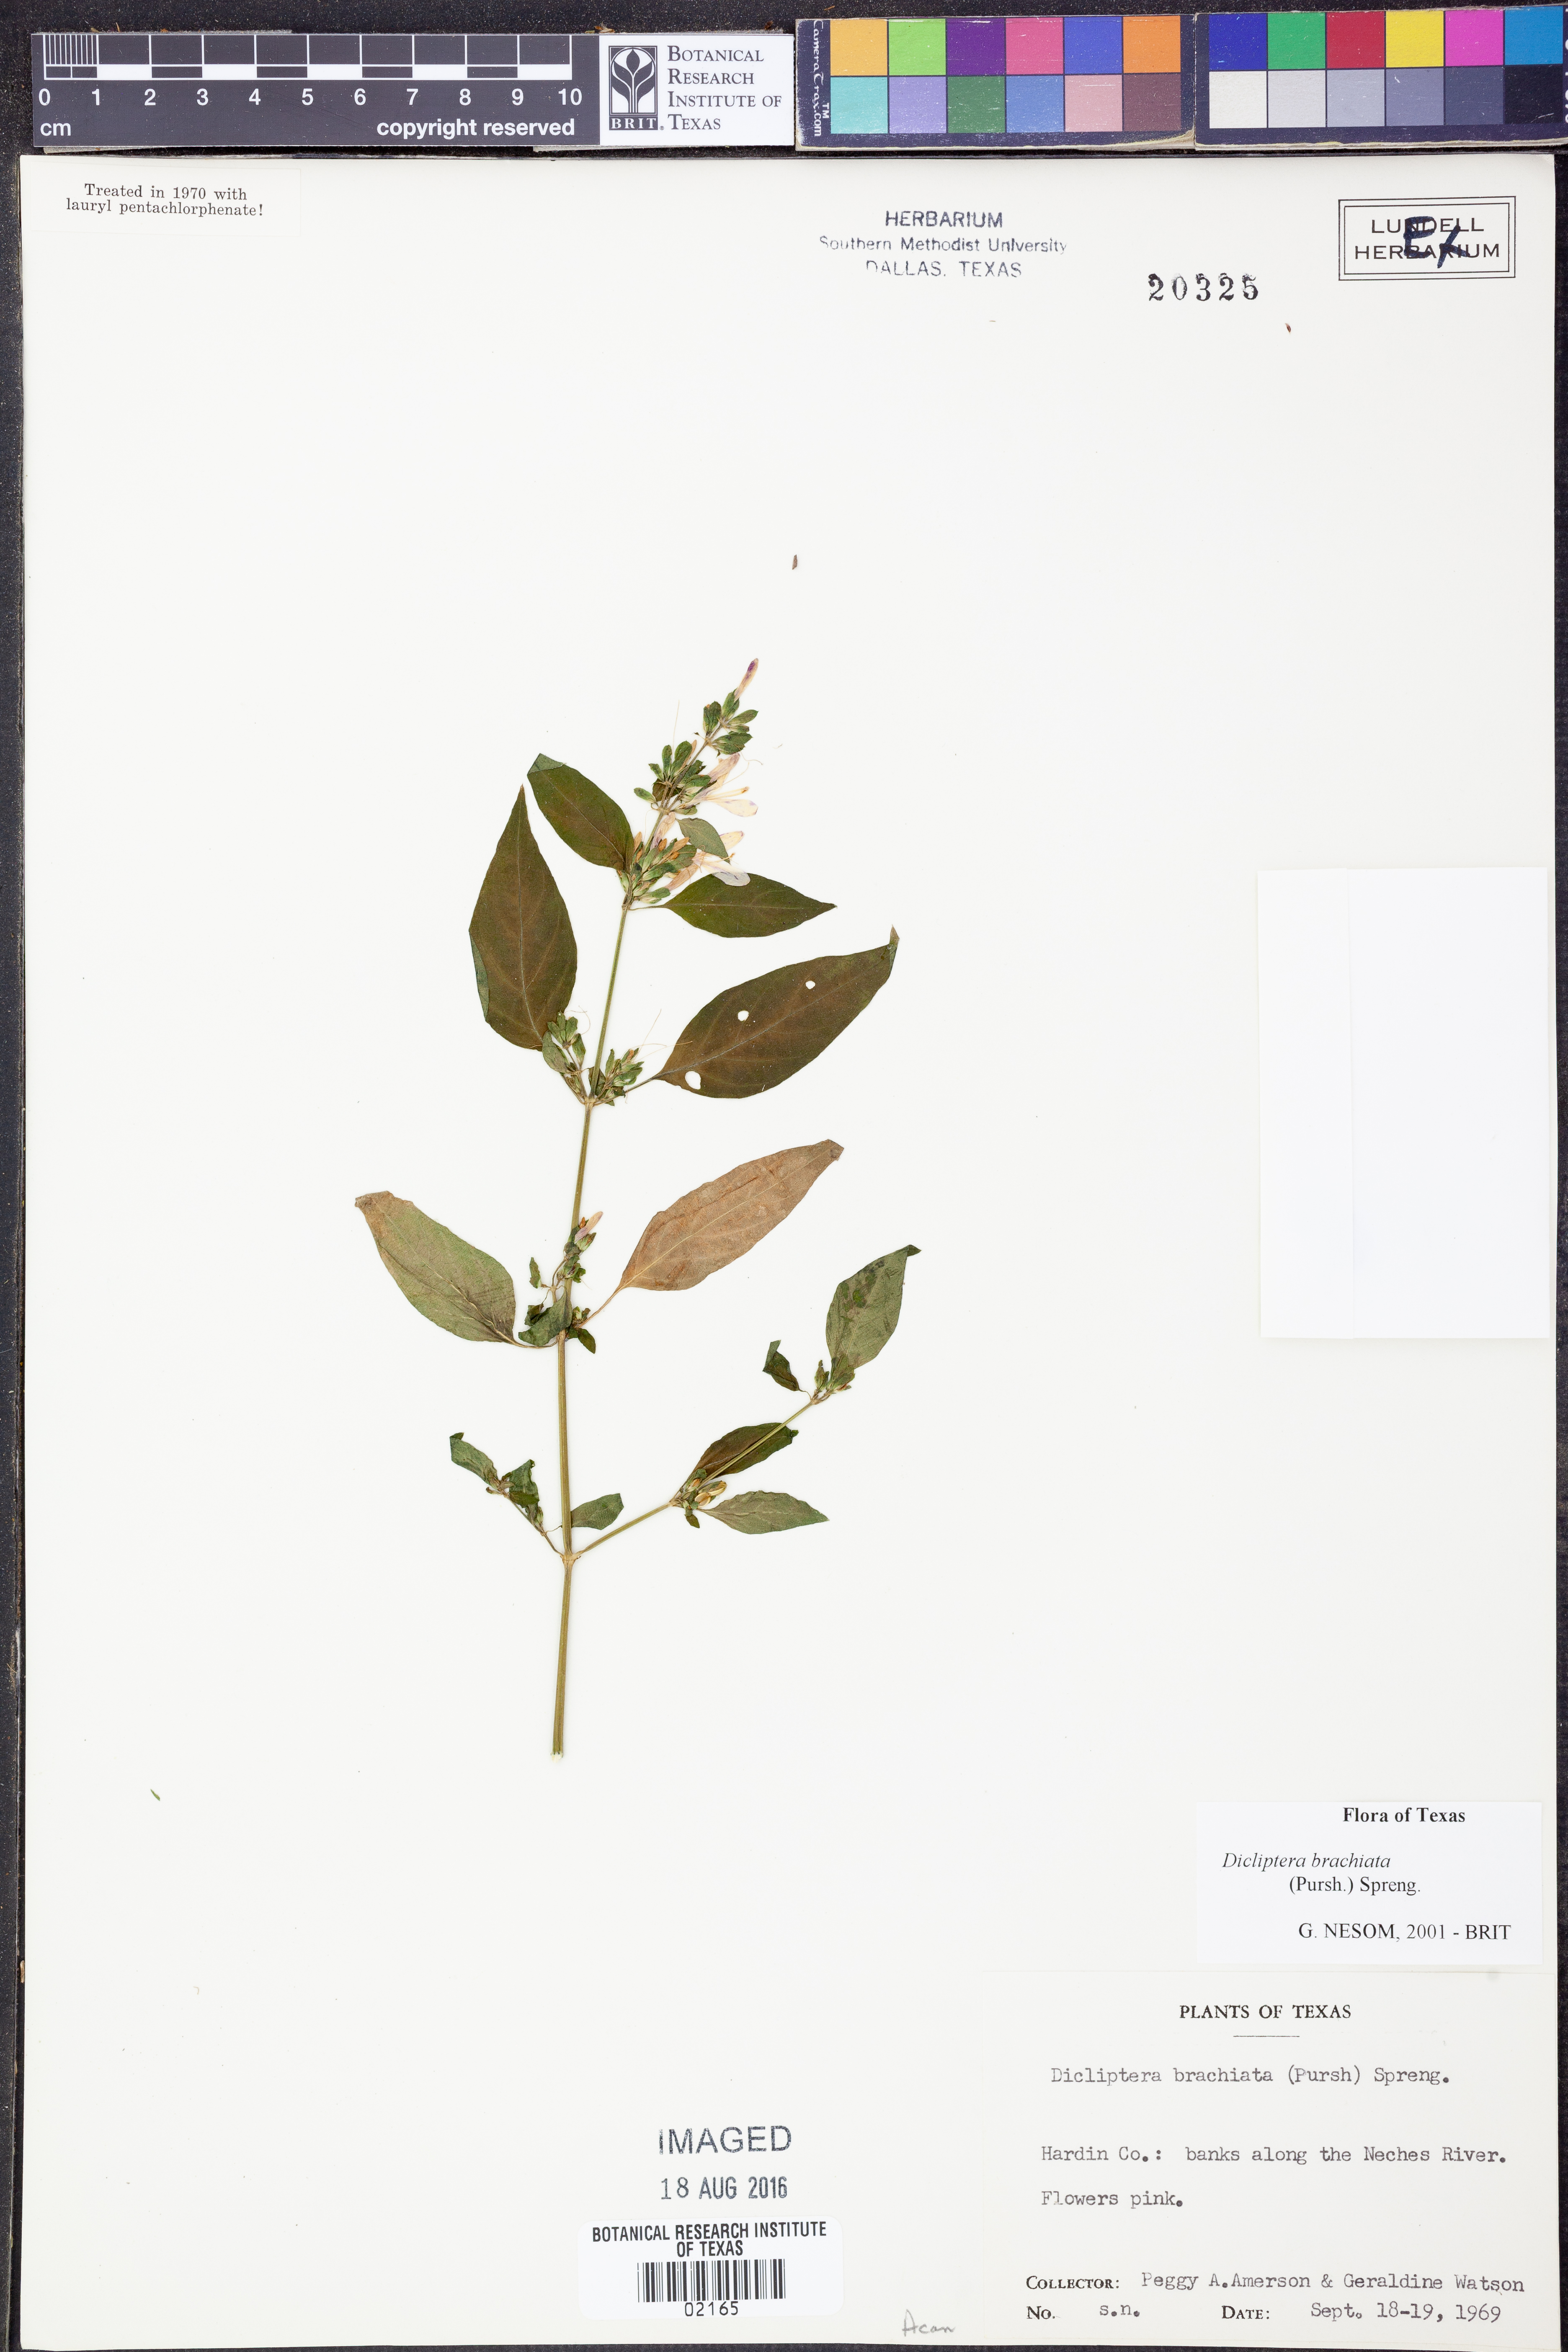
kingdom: Plantae
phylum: Tracheophyta
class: Magnoliopsida
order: Lamiales
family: Acanthaceae
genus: Dicliptera
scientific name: Dicliptera brachiata
